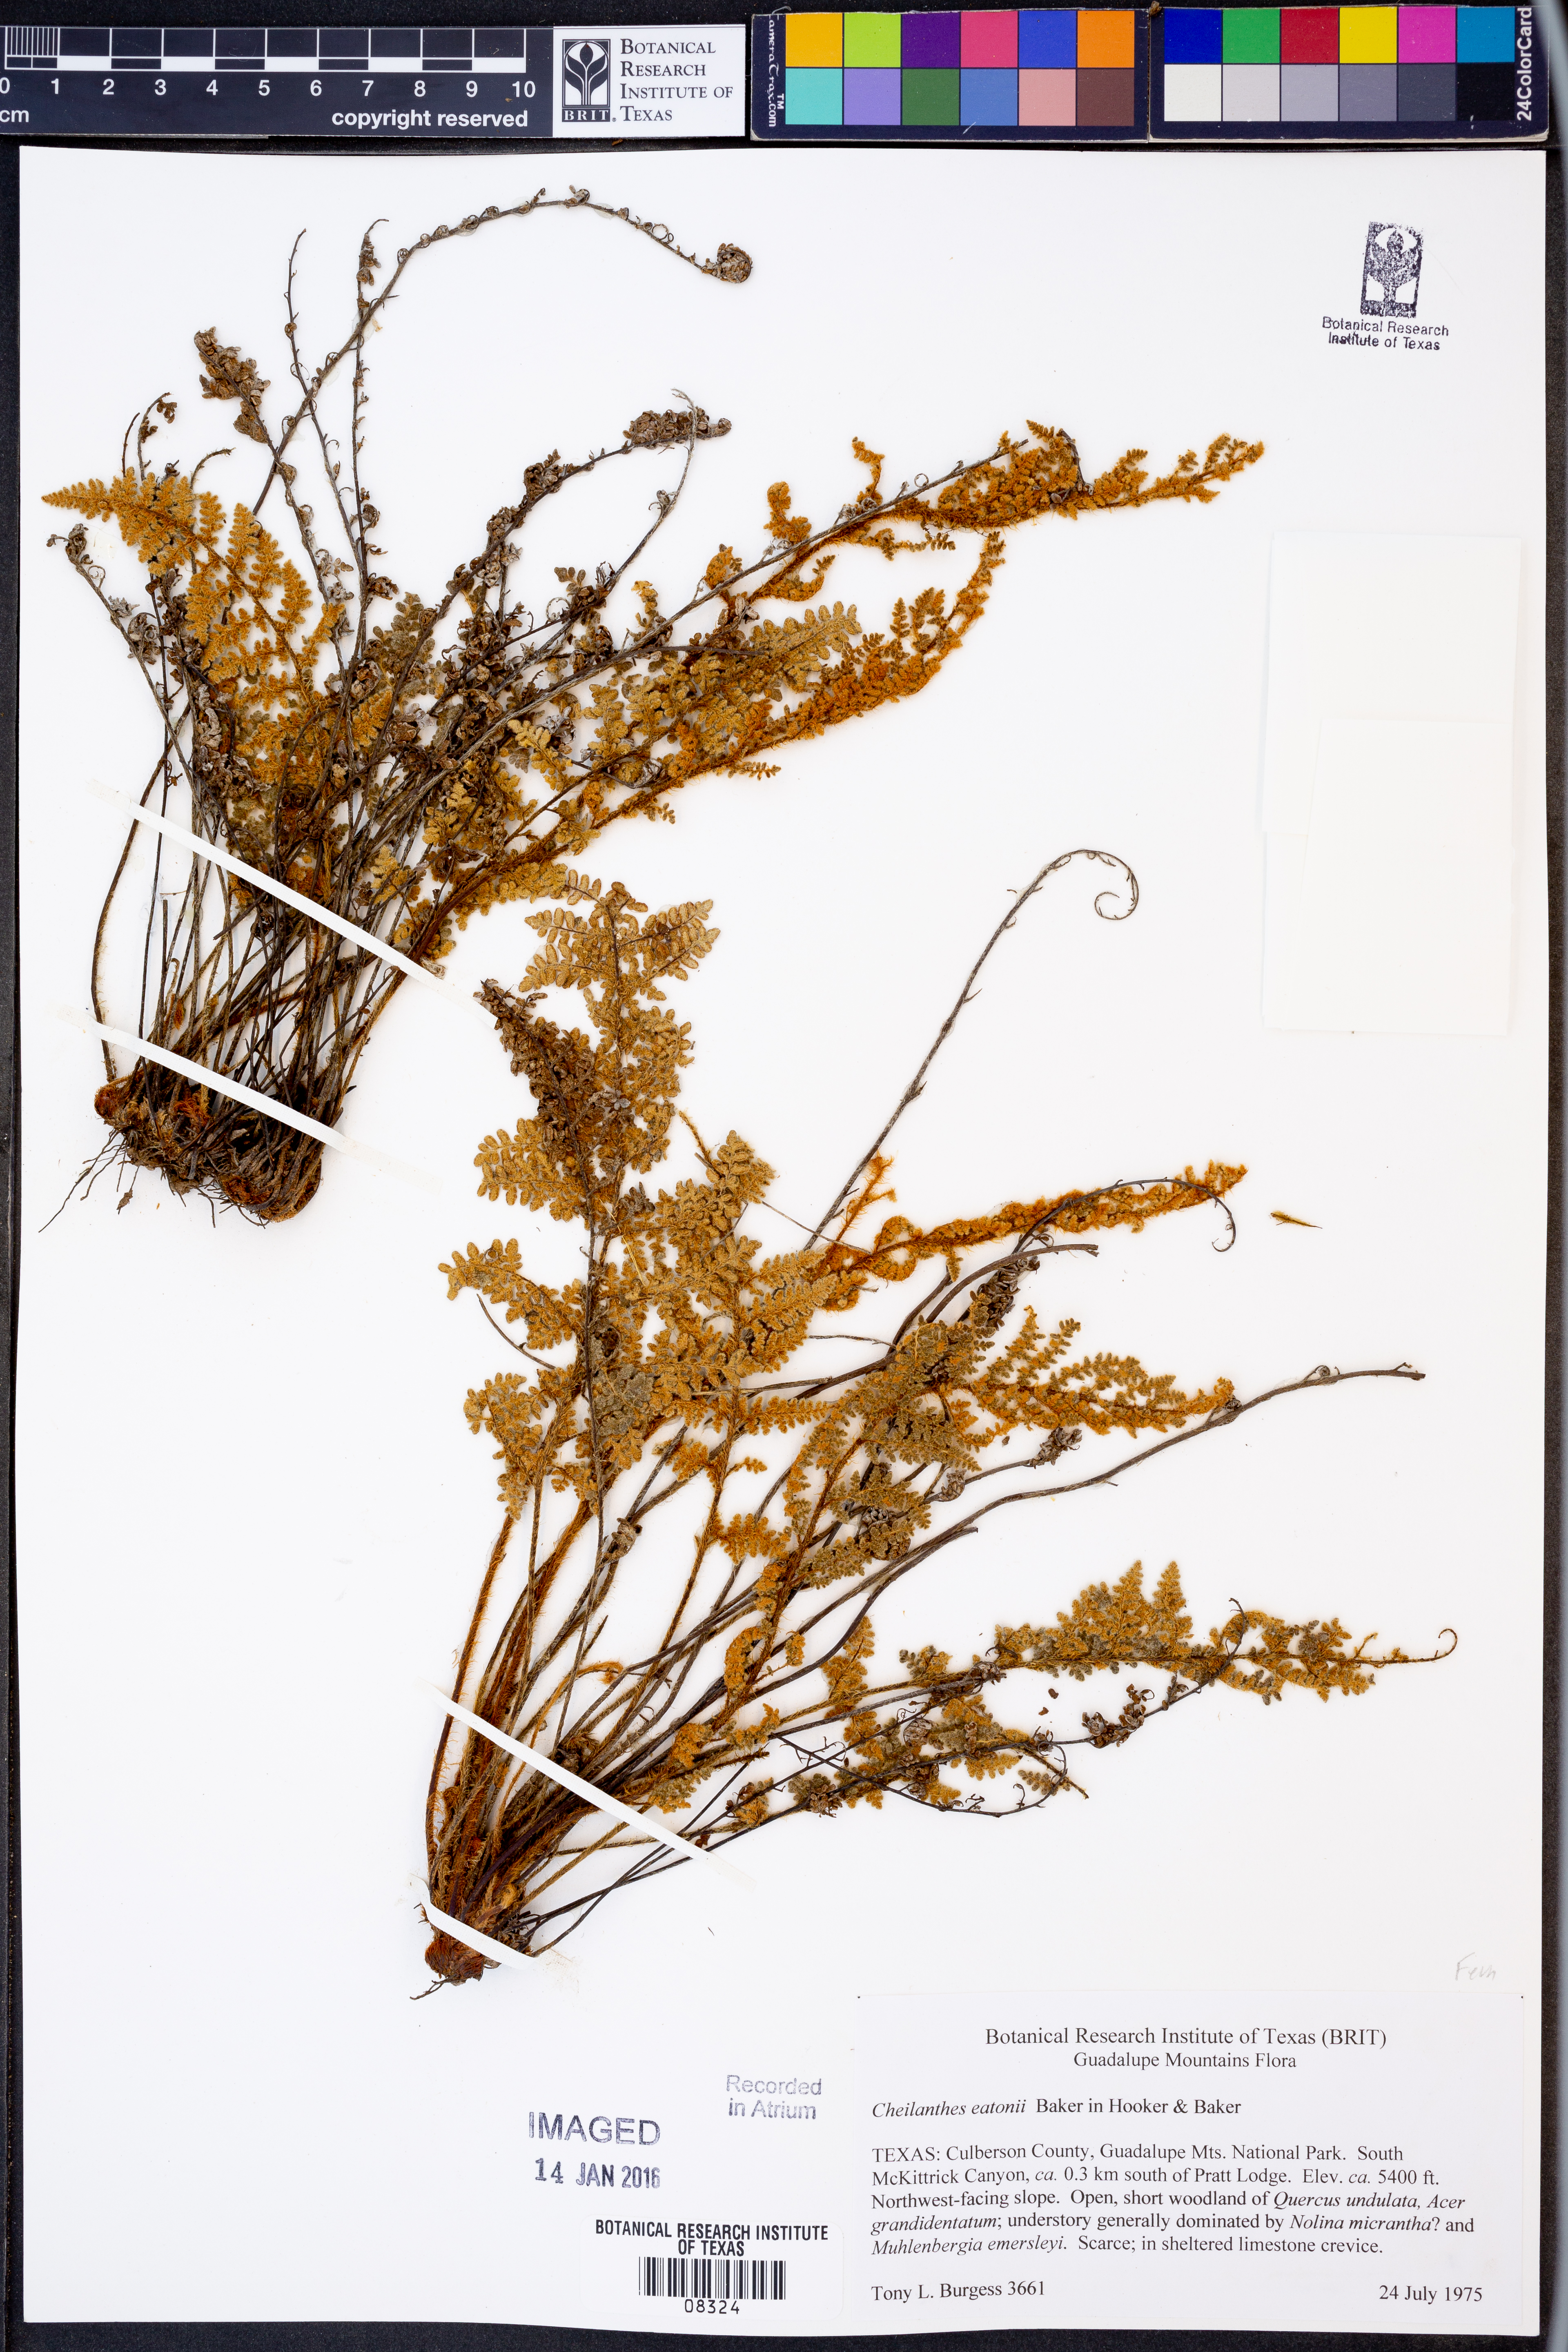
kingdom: Plantae
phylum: Tracheophyta
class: Polypodiopsida
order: Polypodiales
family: Pteridaceae
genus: Myriopteris
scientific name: Myriopteris rufa
